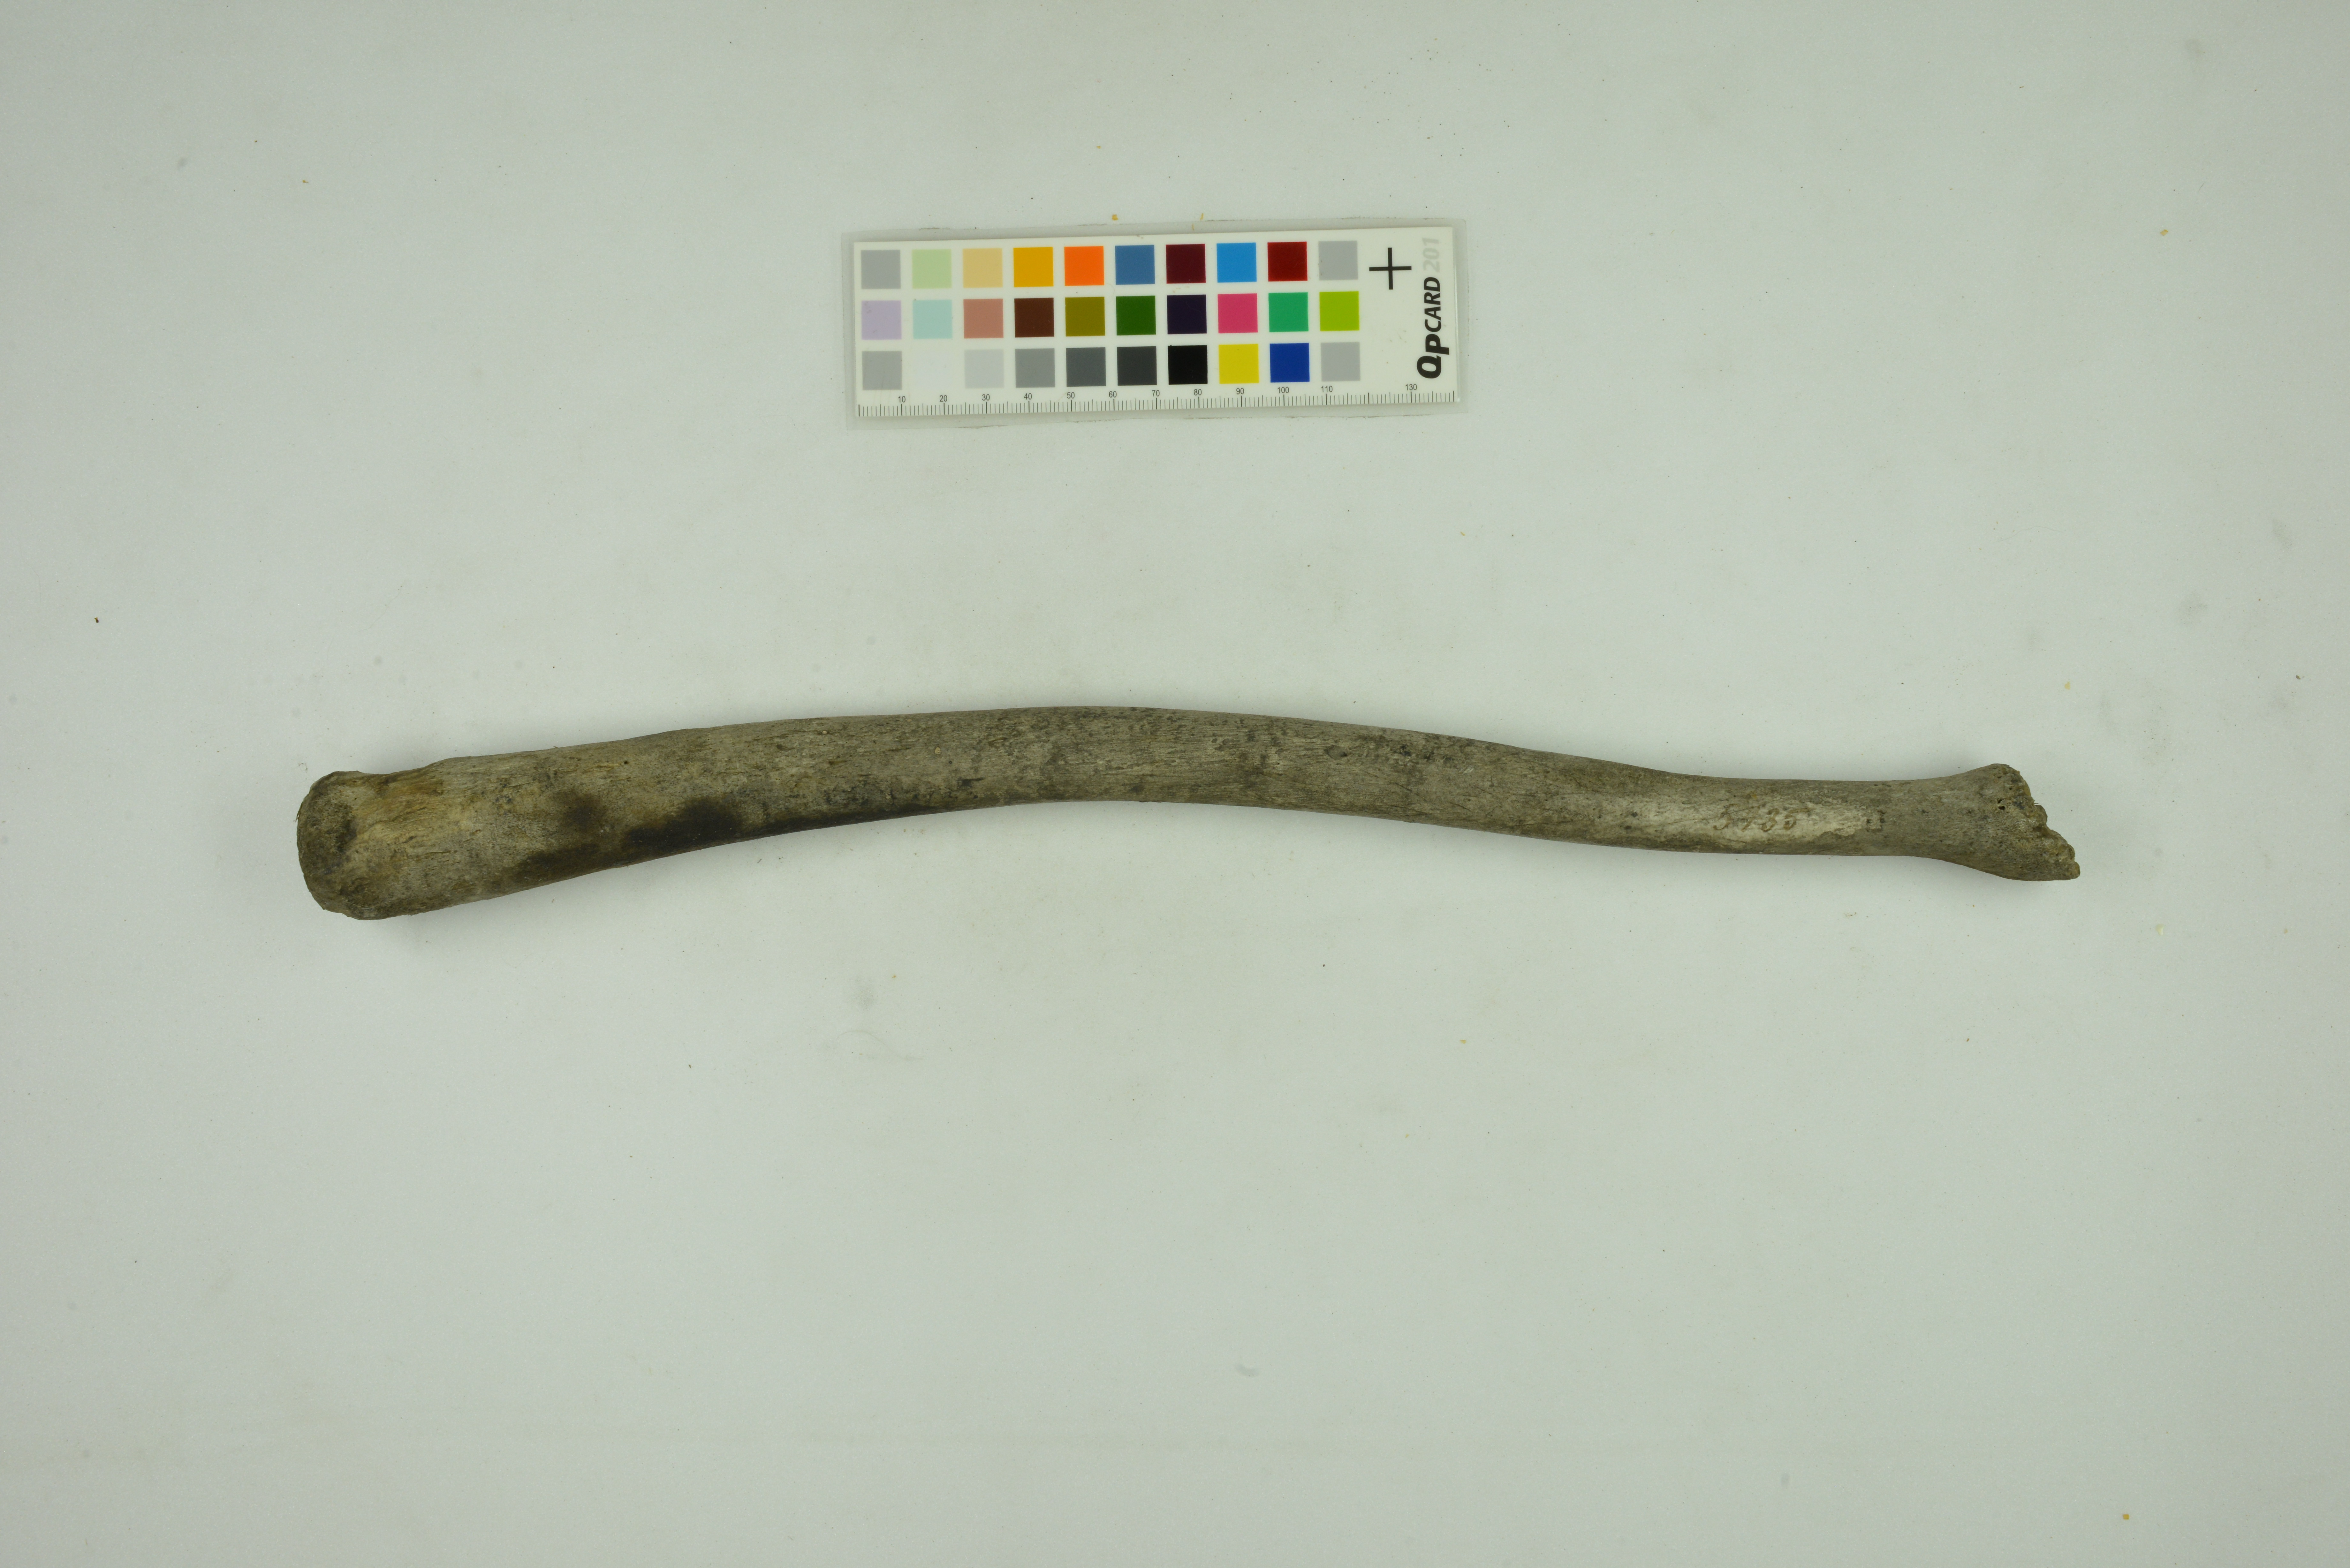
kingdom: Animalia
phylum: Chordata
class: Mammalia
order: Carnivora
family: Odobenidae
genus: Odobenus
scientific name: Odobenus rosmarus
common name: Walrus
